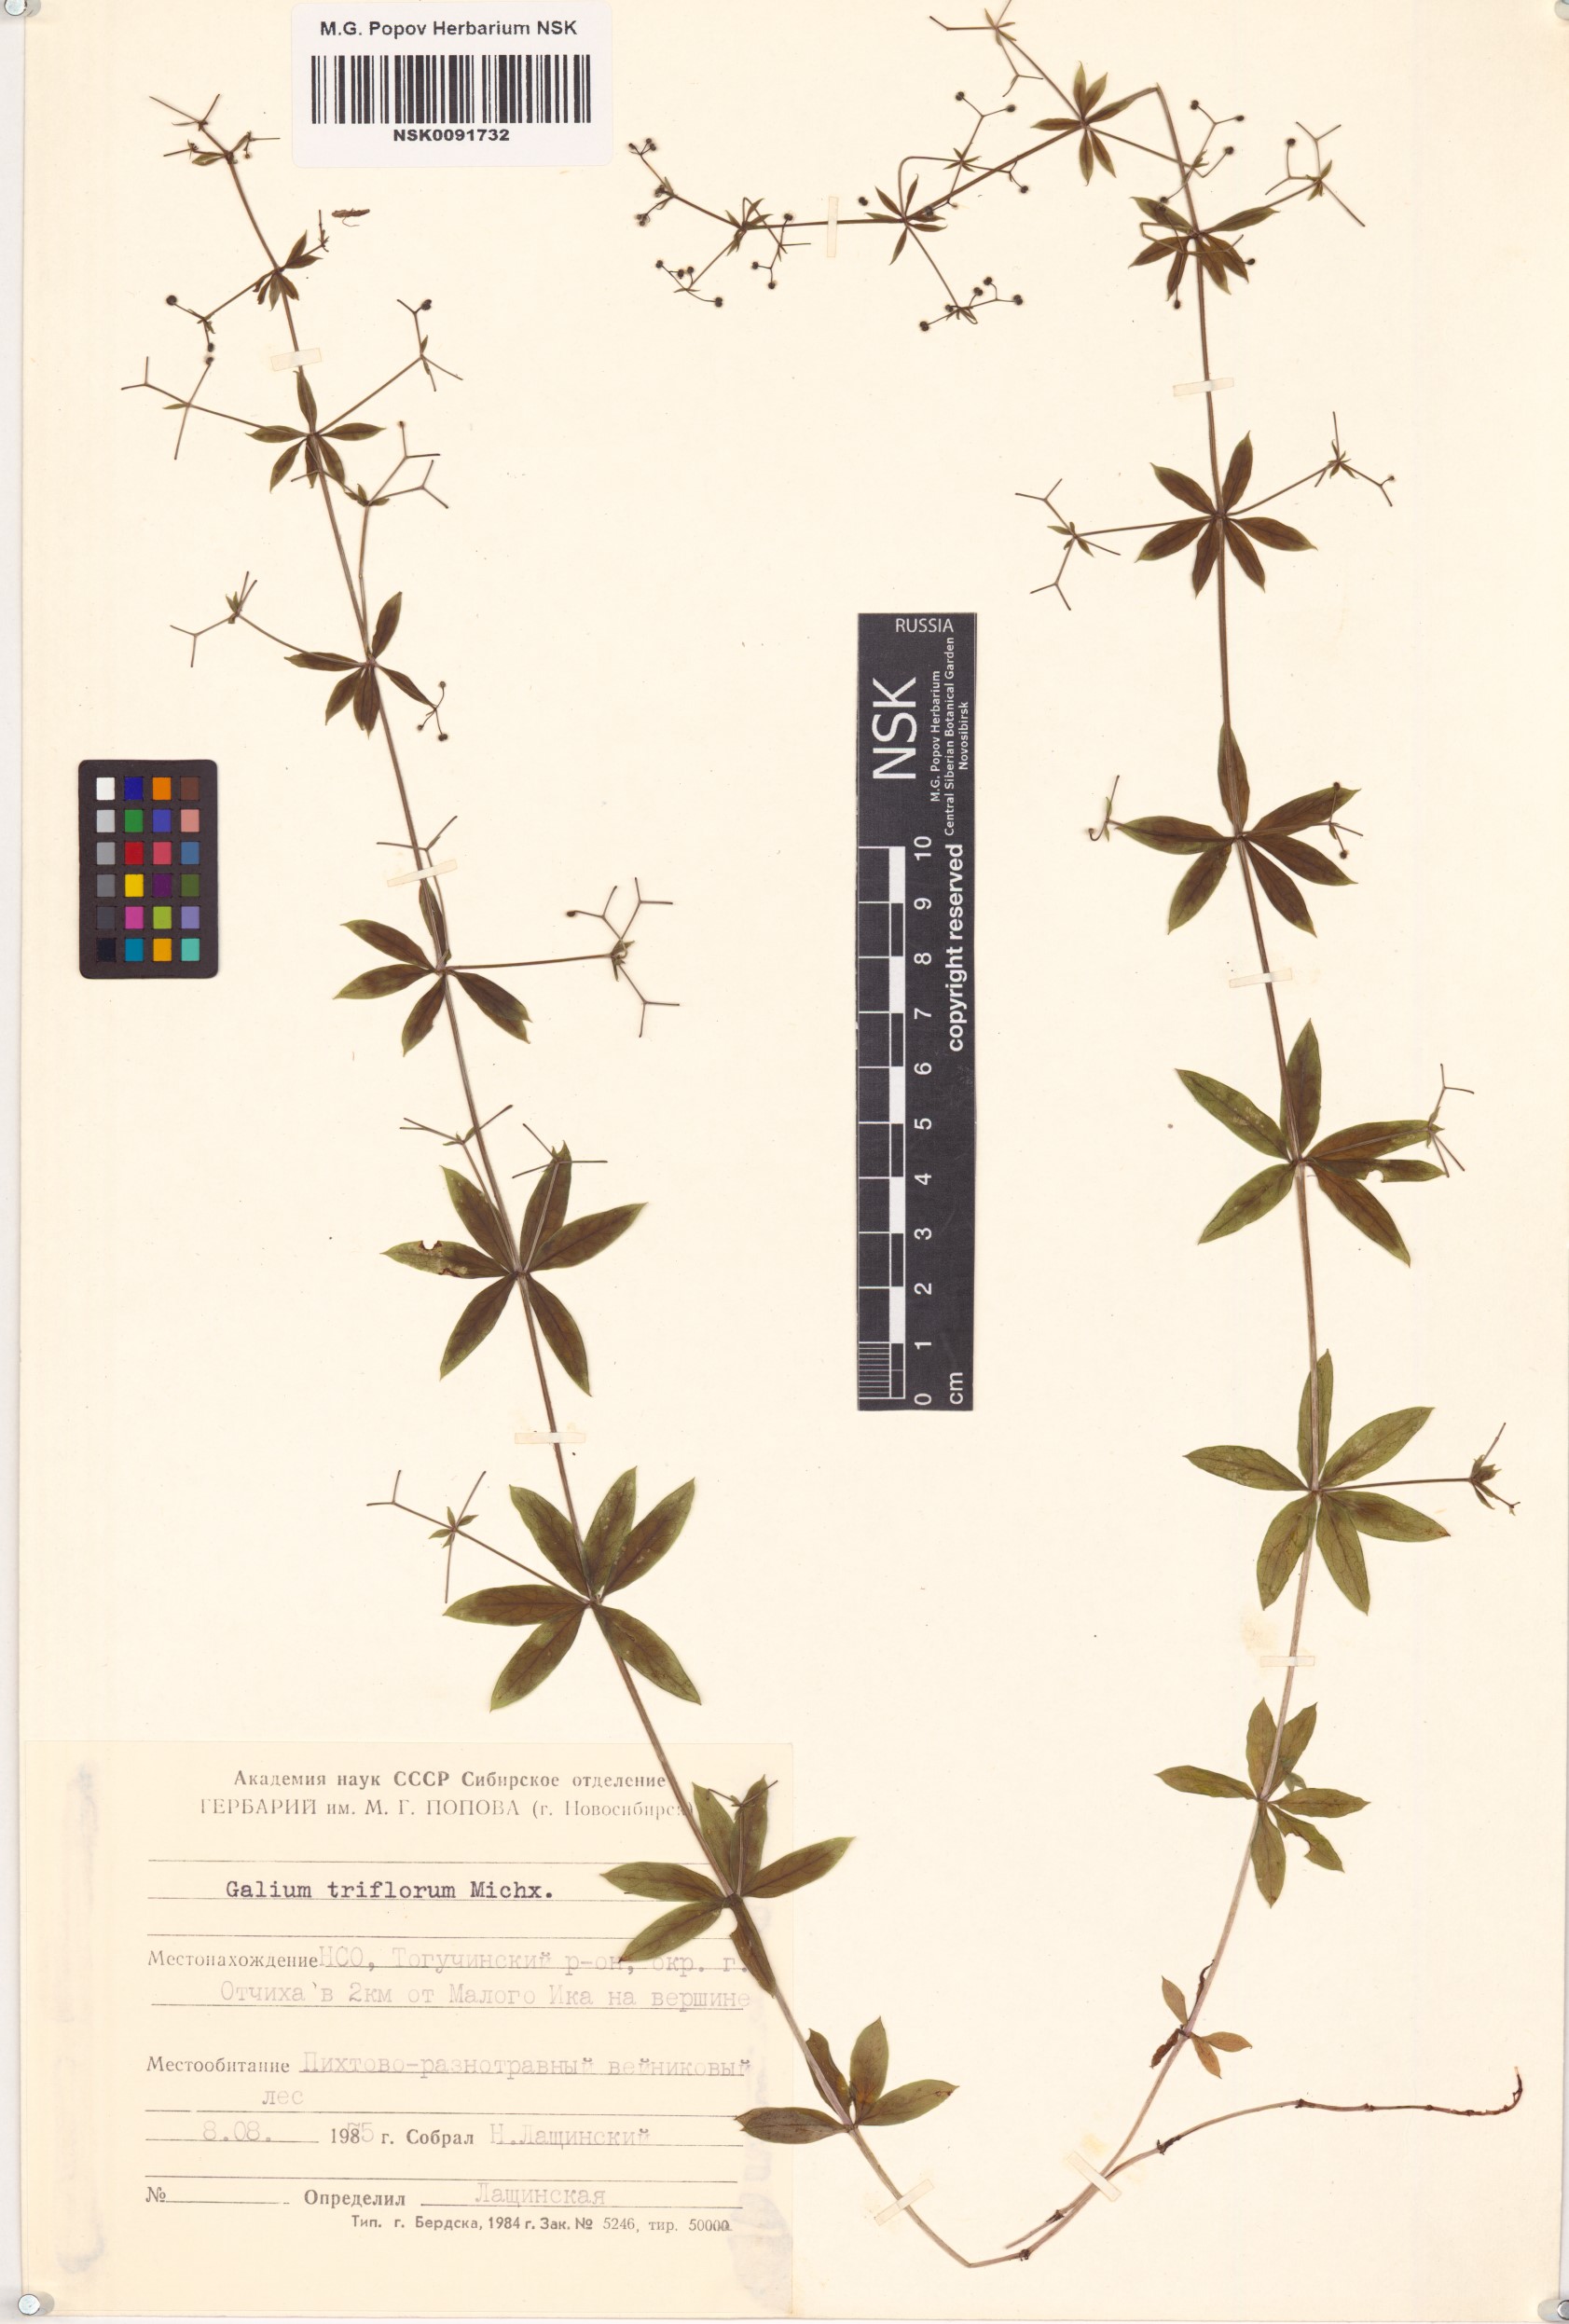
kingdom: Plantae
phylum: Tracheophyta
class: Magnoliopsida
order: Gentianales
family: Rubiaceae
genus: Galium
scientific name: Galium triflorum
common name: Fragrant bedstraw
